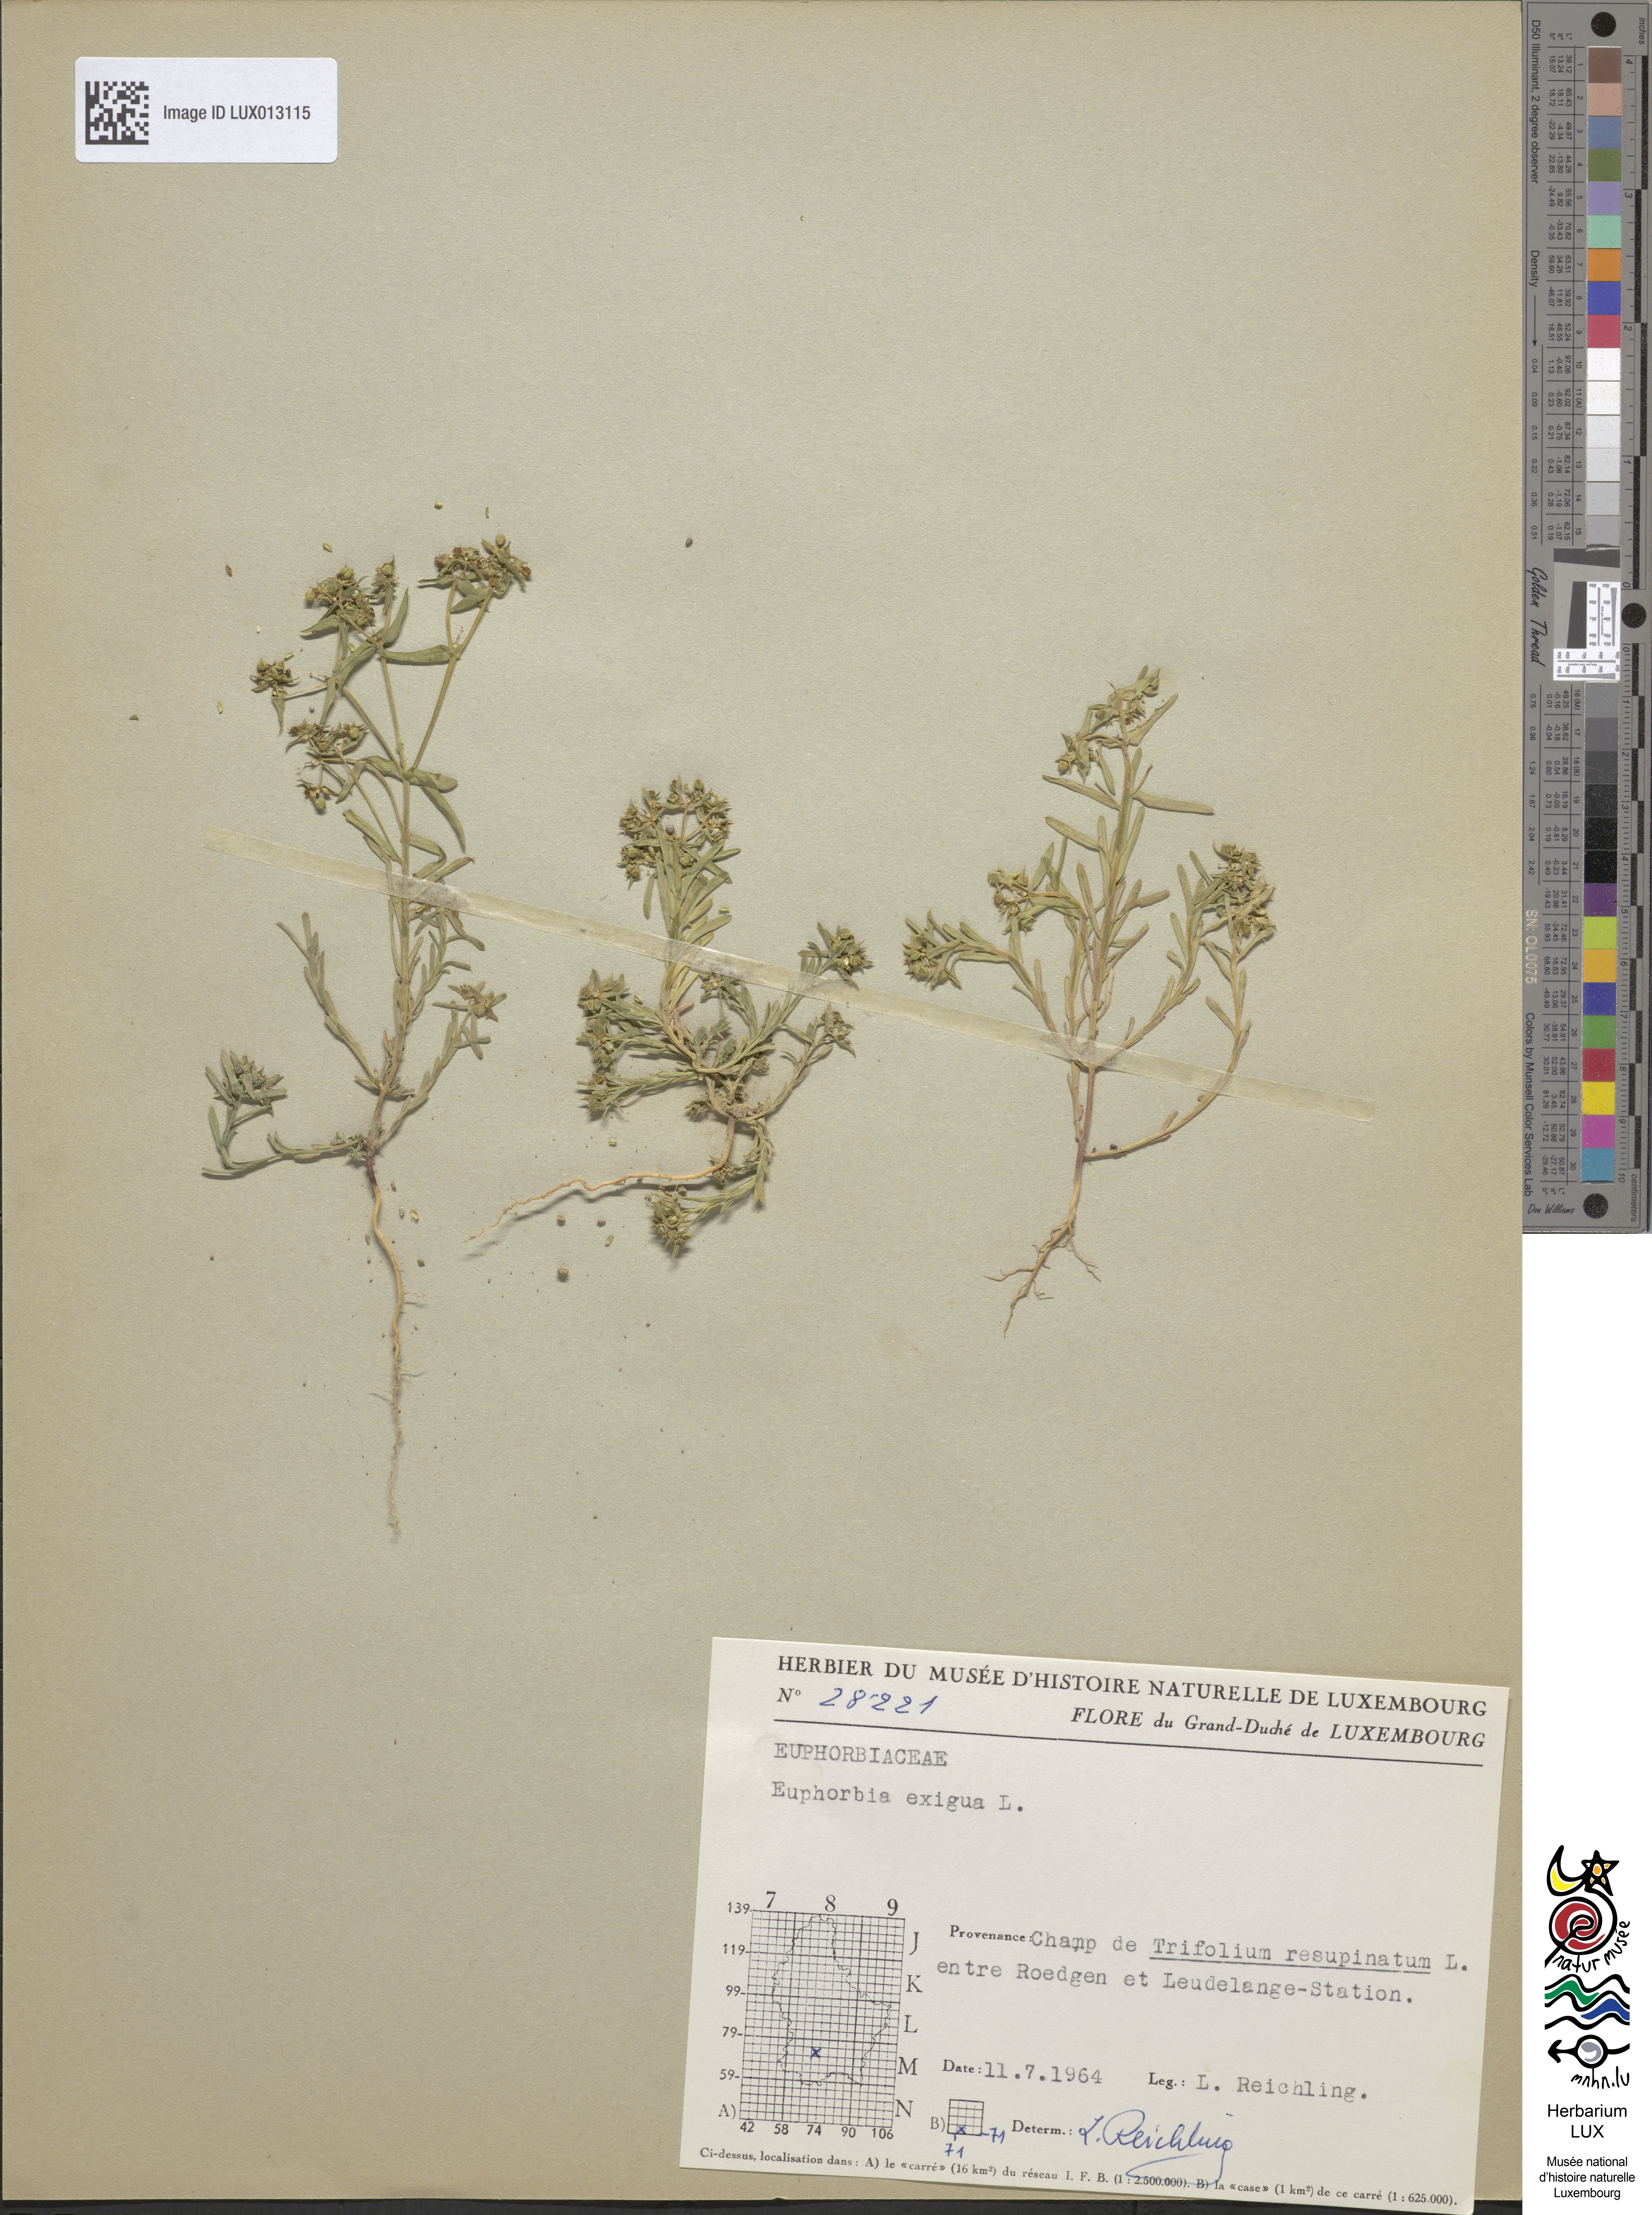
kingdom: Plantae
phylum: Tracheophyta
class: Magnoliopsida
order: Malpighiales
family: Euphorbiaceae
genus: Euphorbia
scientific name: Euphorbia exigua
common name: Dwarf spurge
